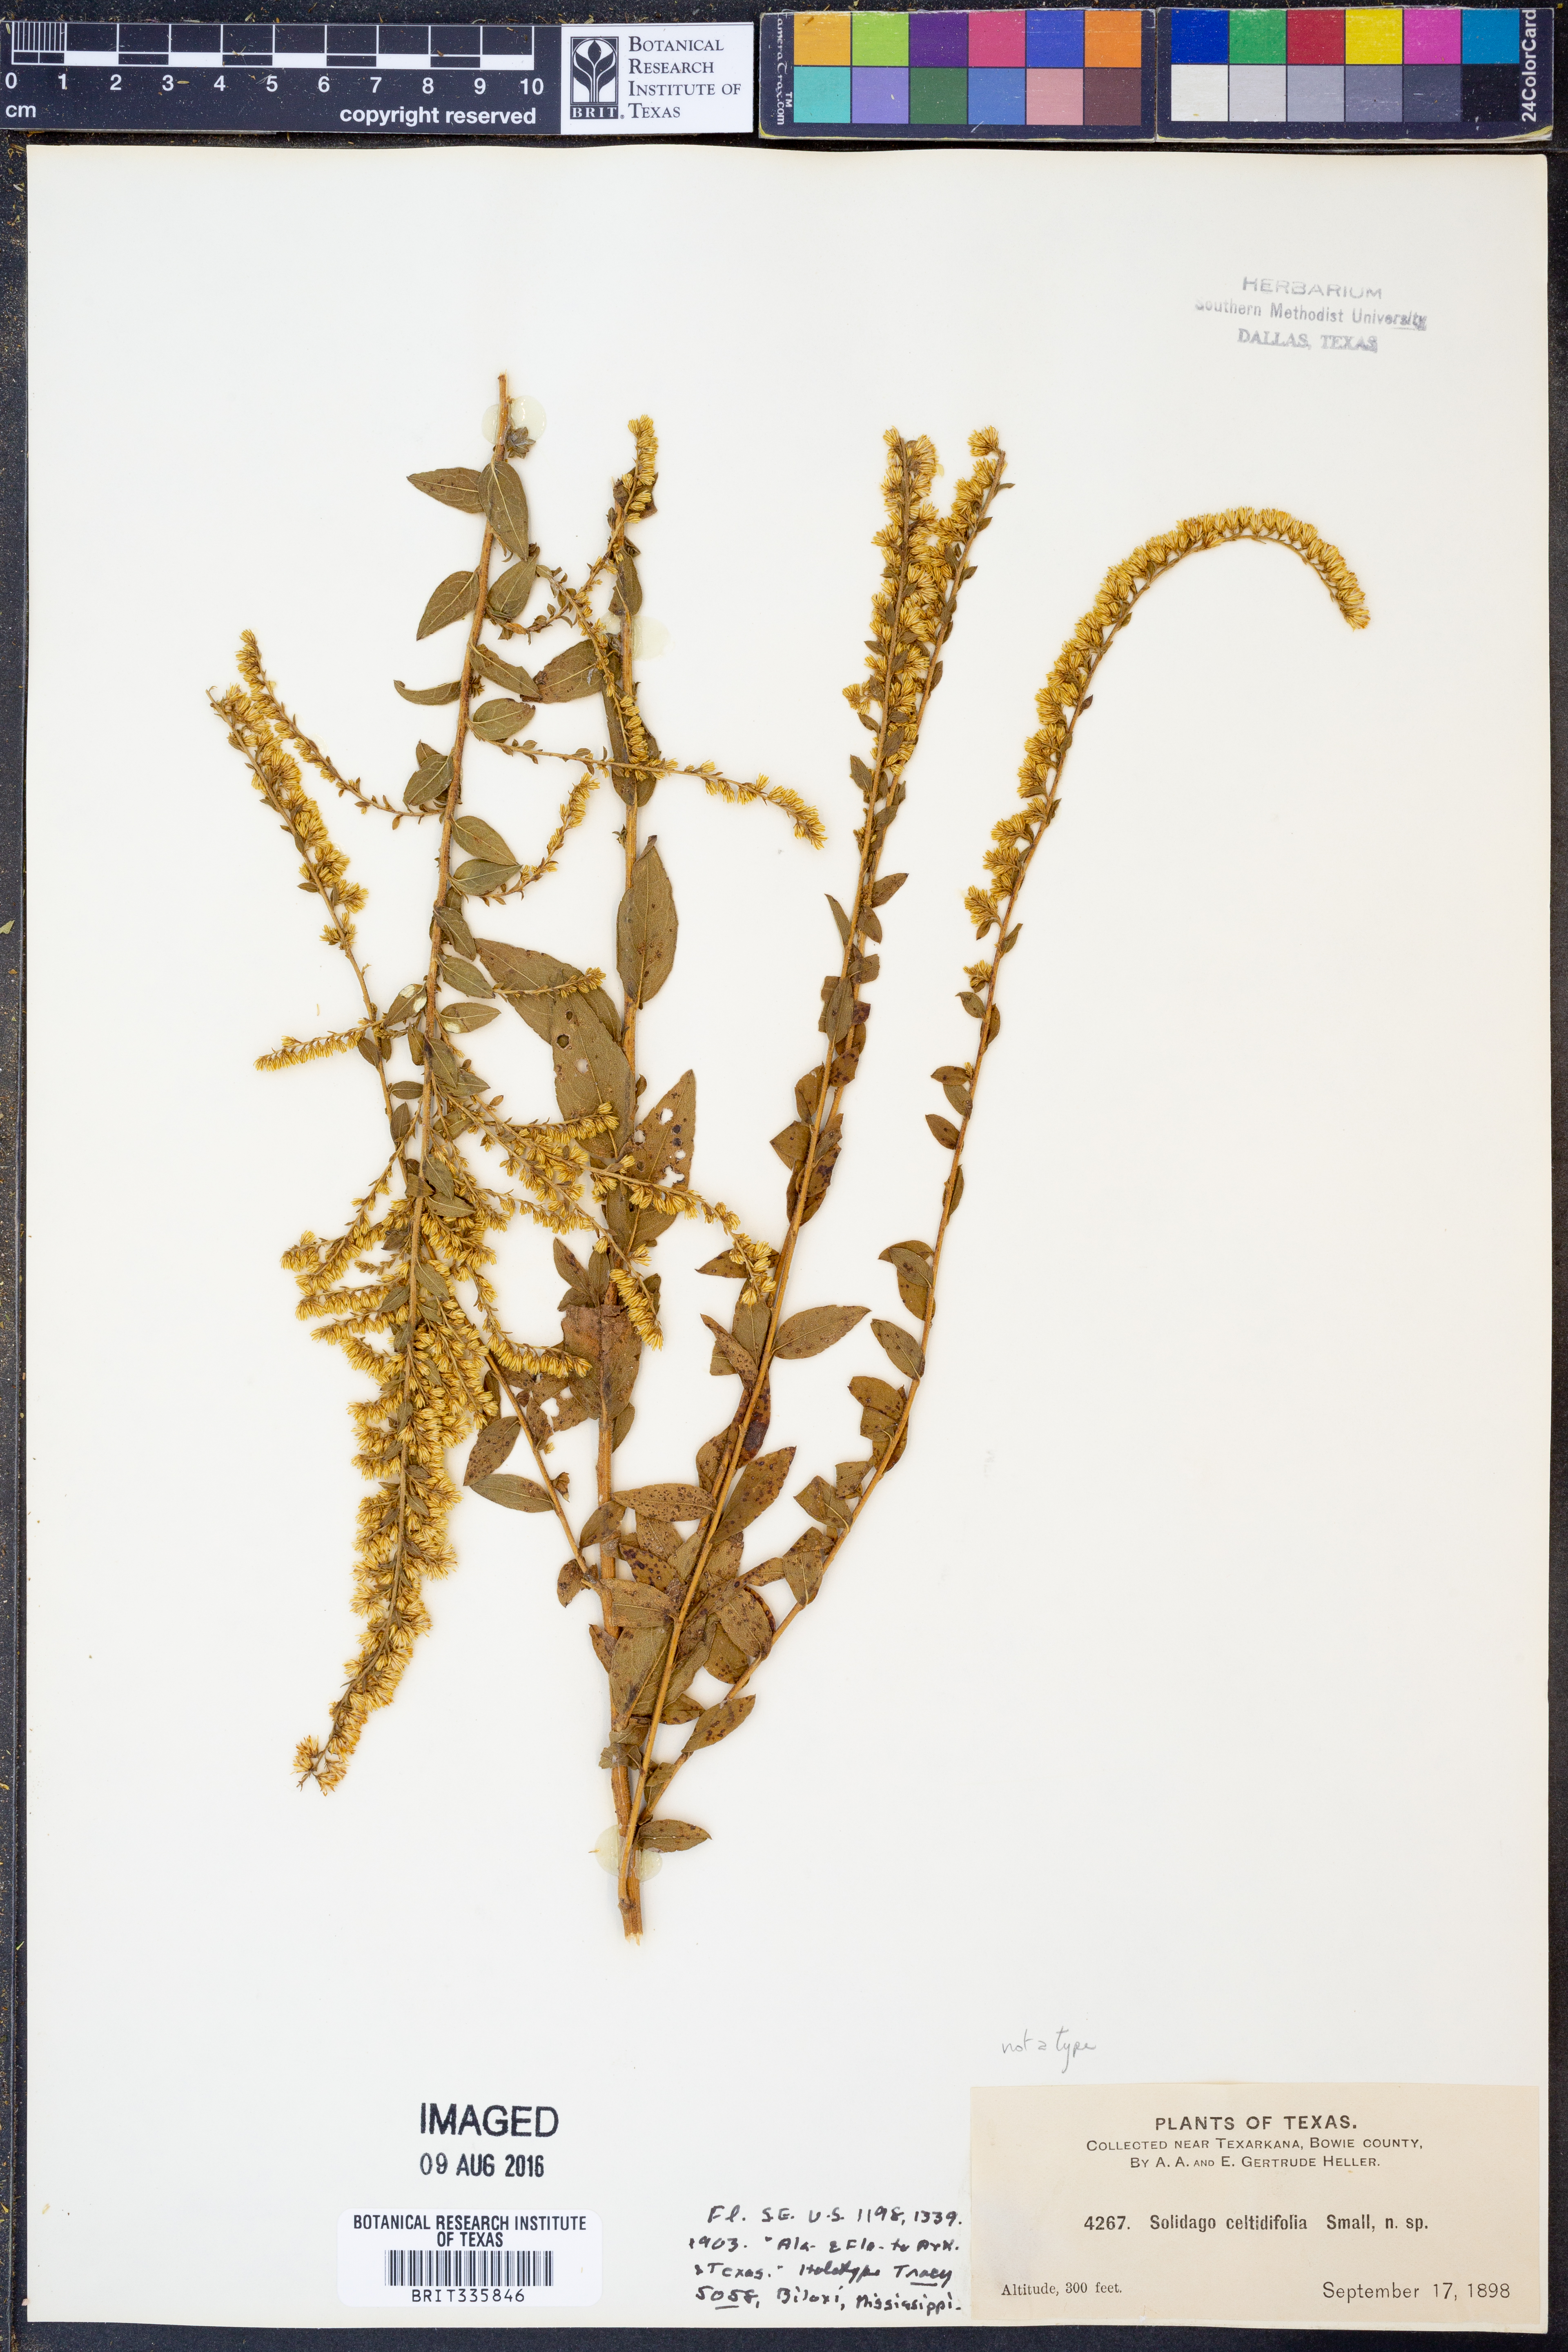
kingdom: Plantae
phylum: Tracheophyta
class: Magnoliopsida
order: Asterales
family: Asteraceae
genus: Solidago
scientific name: Solidago rugosa
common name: Rough-stemmed goldenrod
